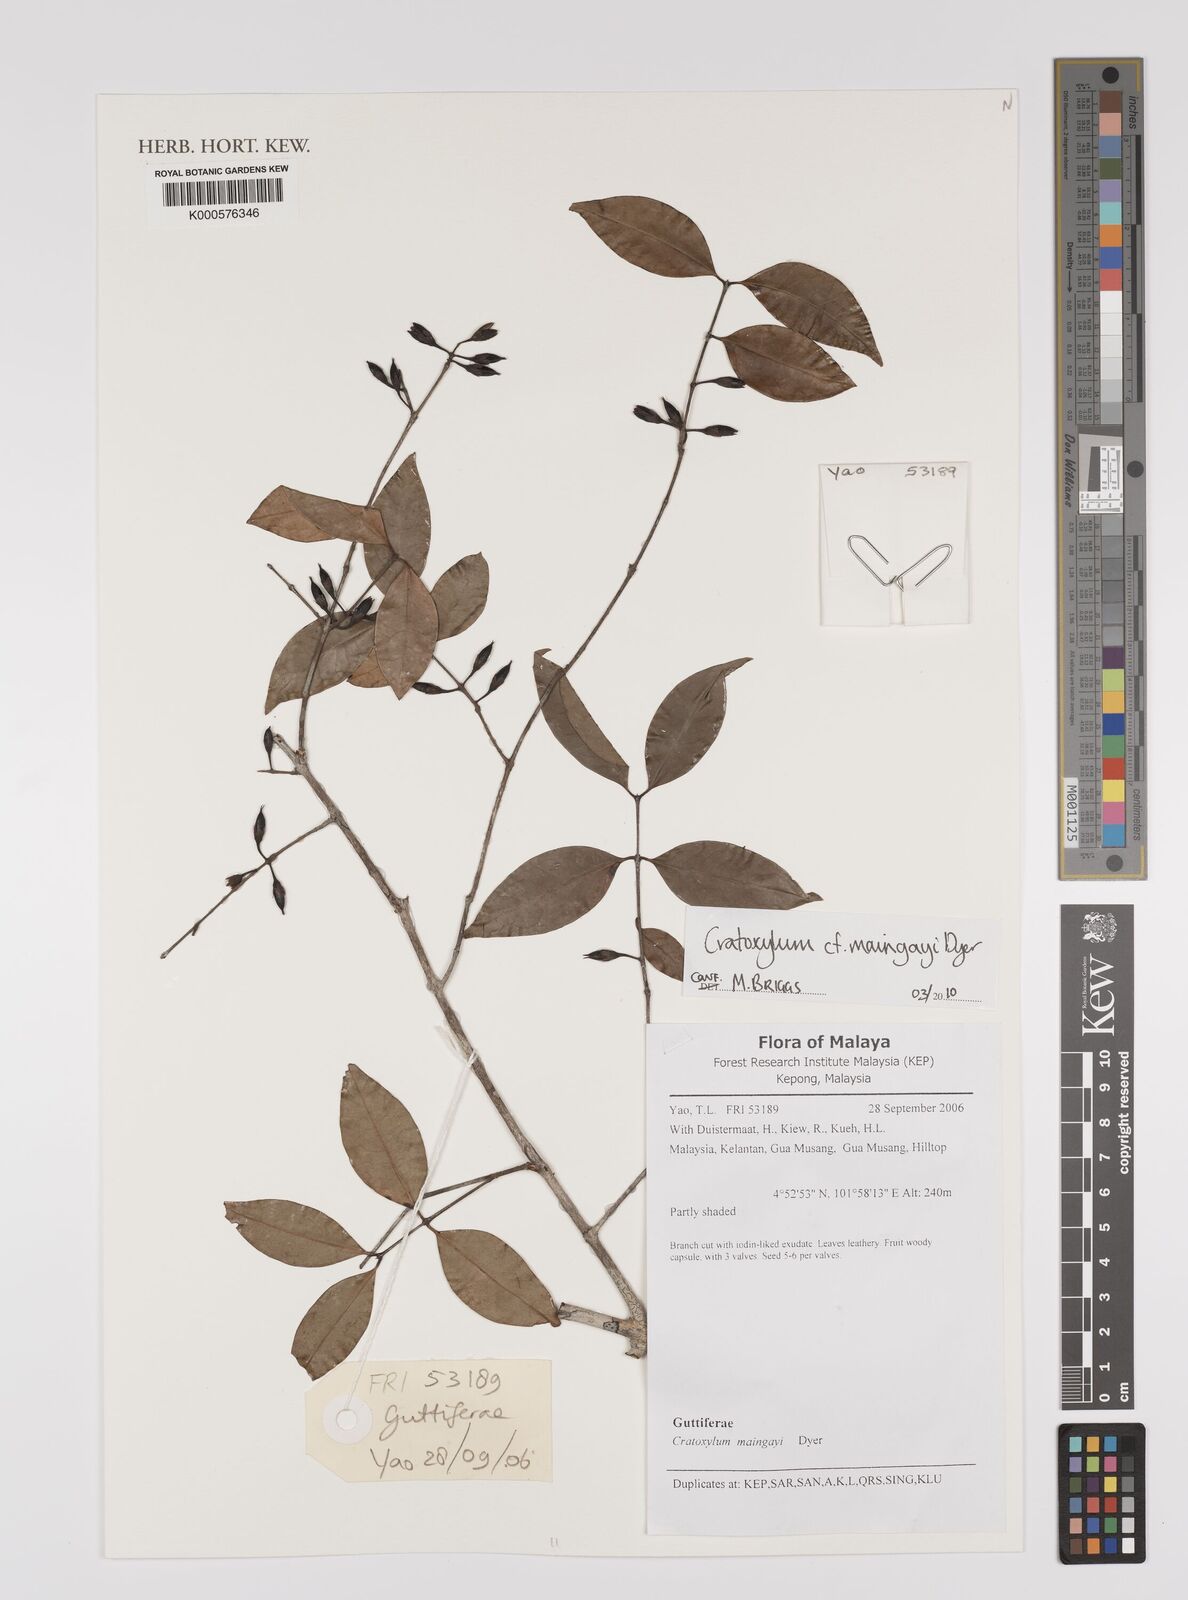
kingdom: Plantae
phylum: Tracheophyta
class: Magnoliopsida
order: Malpighiales
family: Hypericaceae
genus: Cratoxylum
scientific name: Cratoxylum maingayi
